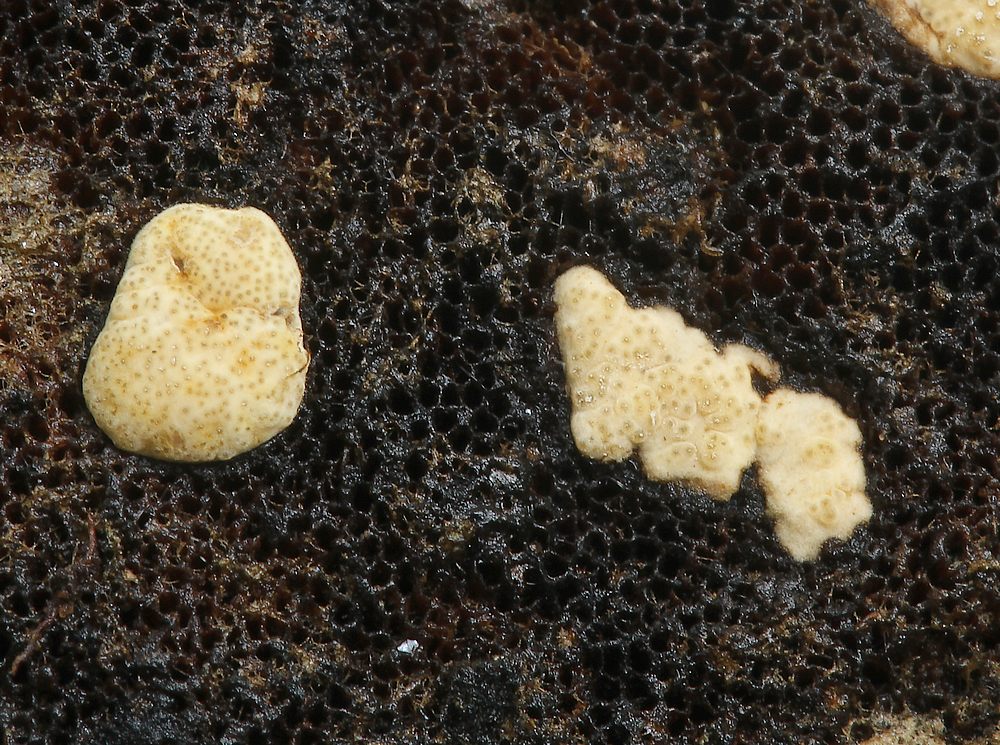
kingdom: Fungi
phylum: Ascomycota
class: Sordariomycetes
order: Hypocreales
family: Hypocreaceae
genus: Trichoderma
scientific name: Trichoderma pulvinatum
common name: snyltende kødkerne
